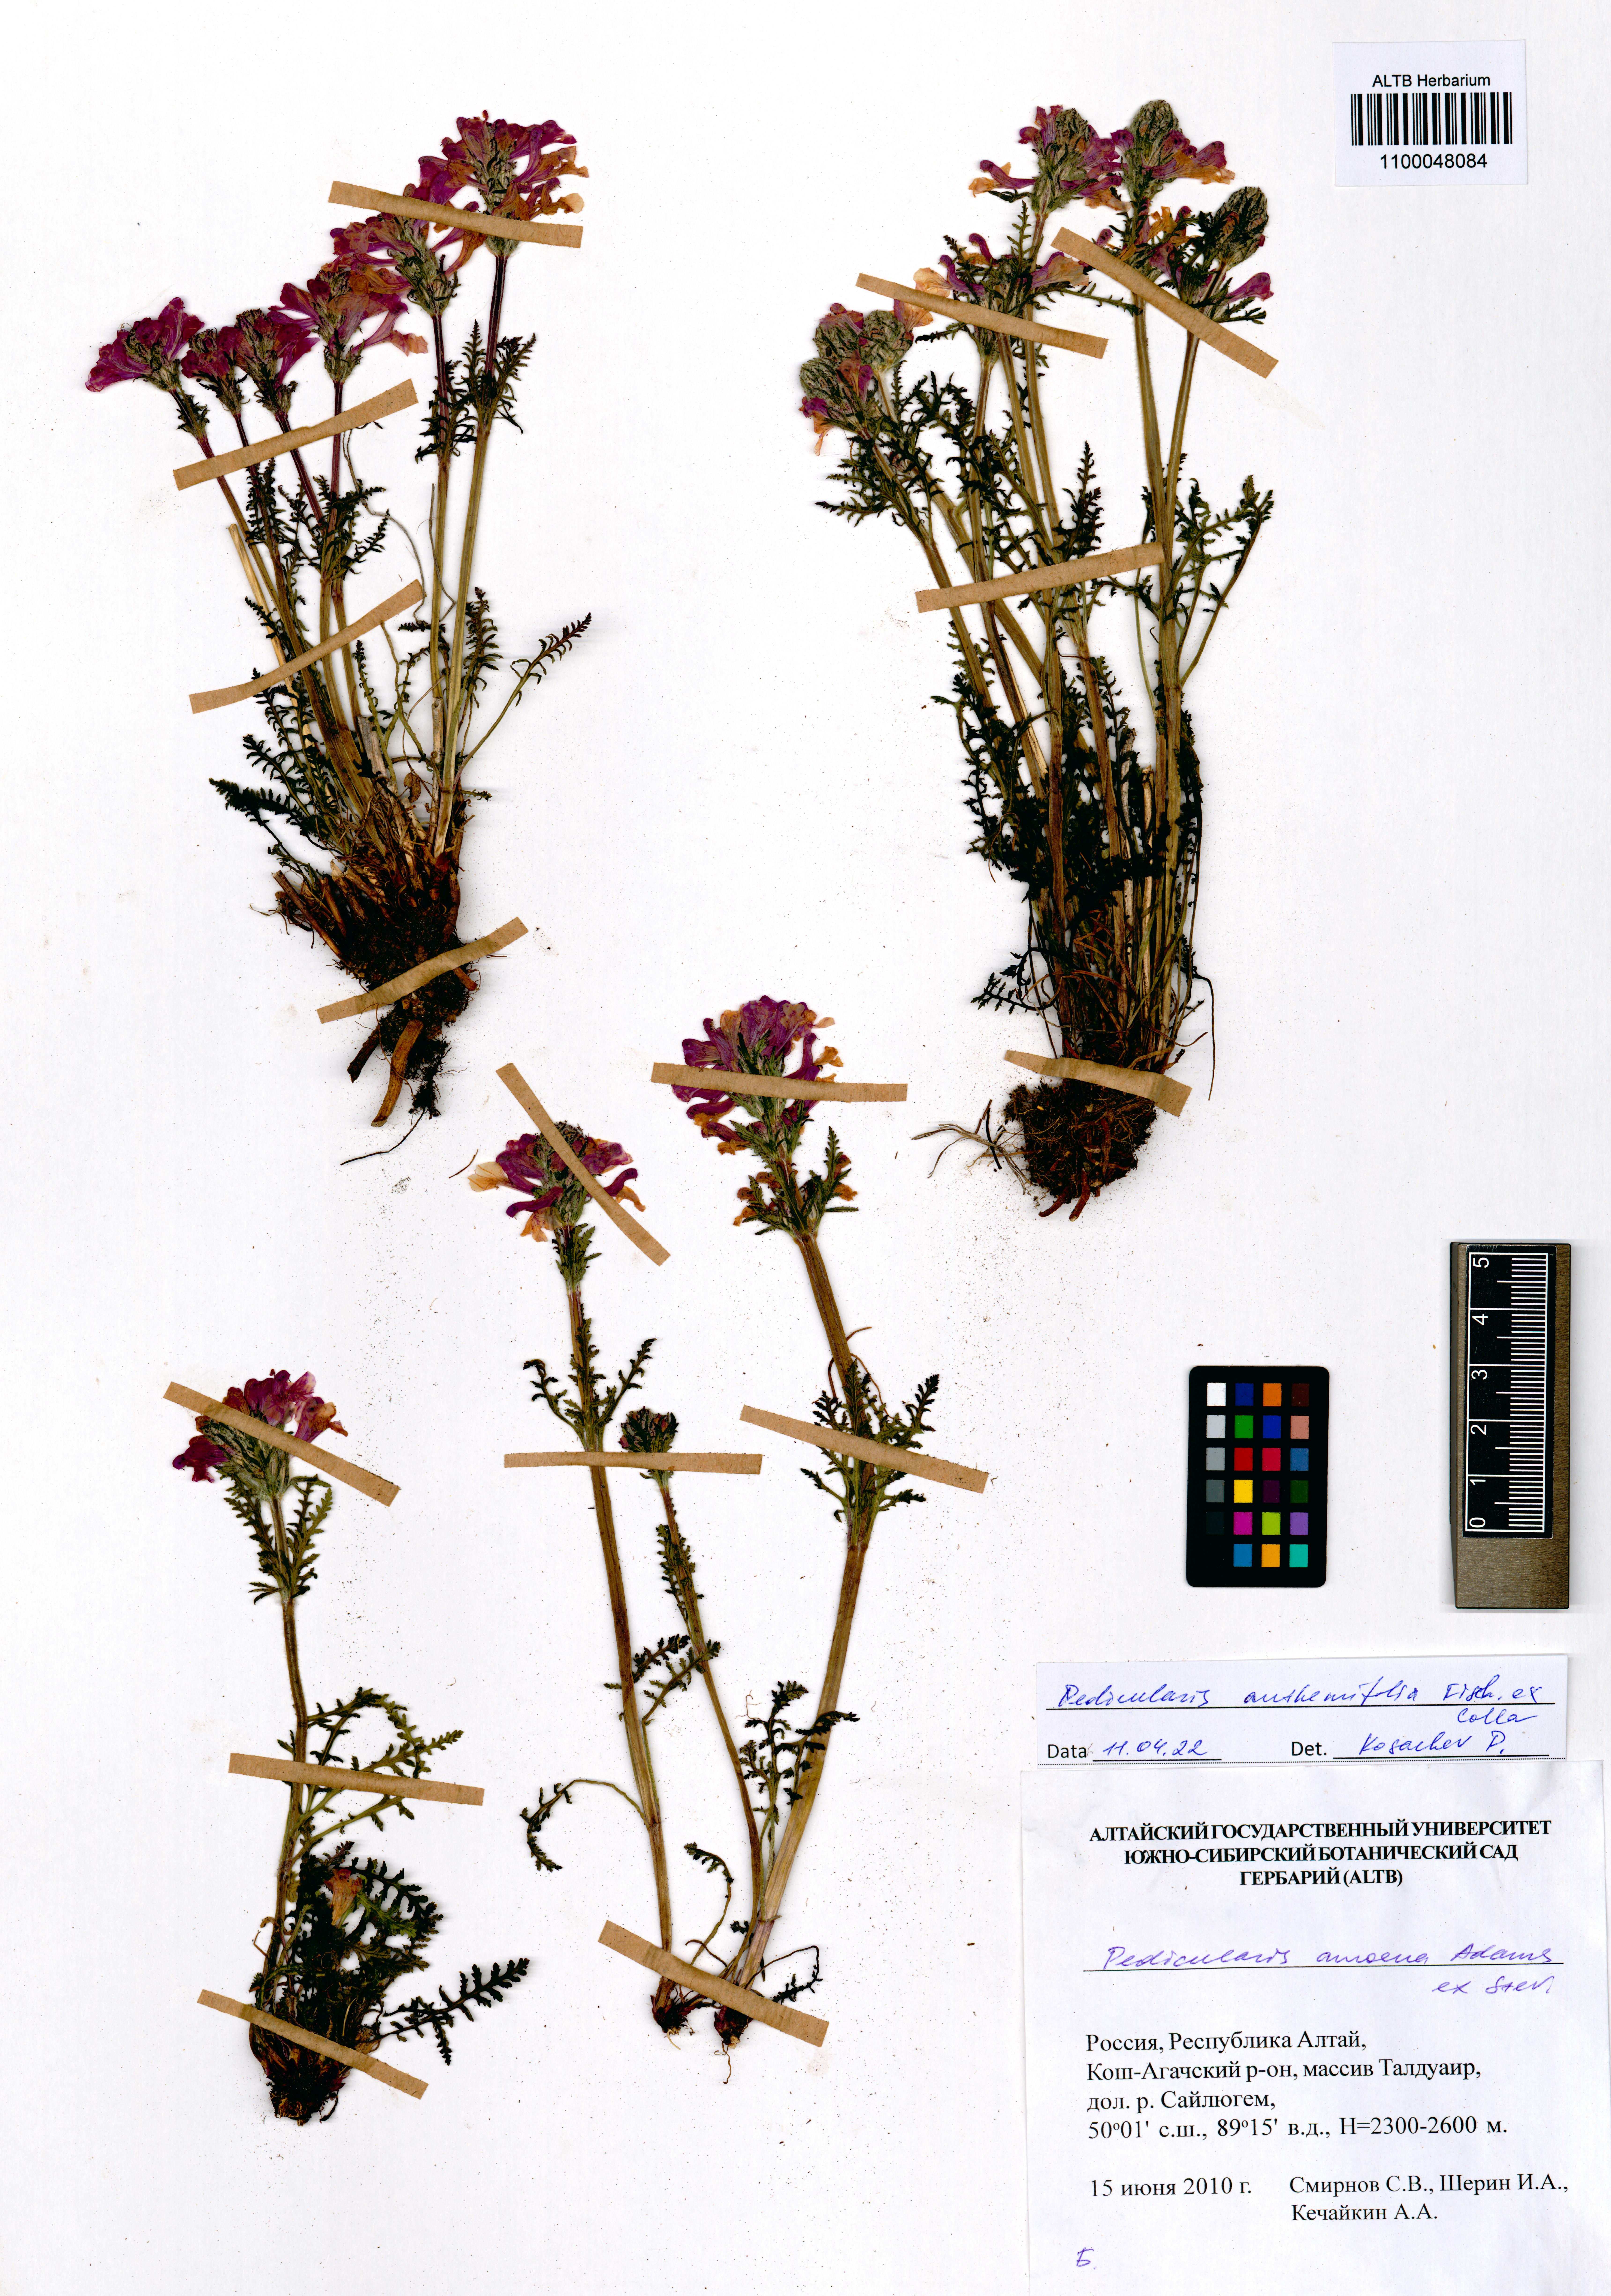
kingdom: Plantae
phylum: Tracheophyta
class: Magnoliopsida
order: Lamiales
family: Orobanchaceae
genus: Pedicularis
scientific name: Pedicularis anthemifolia
